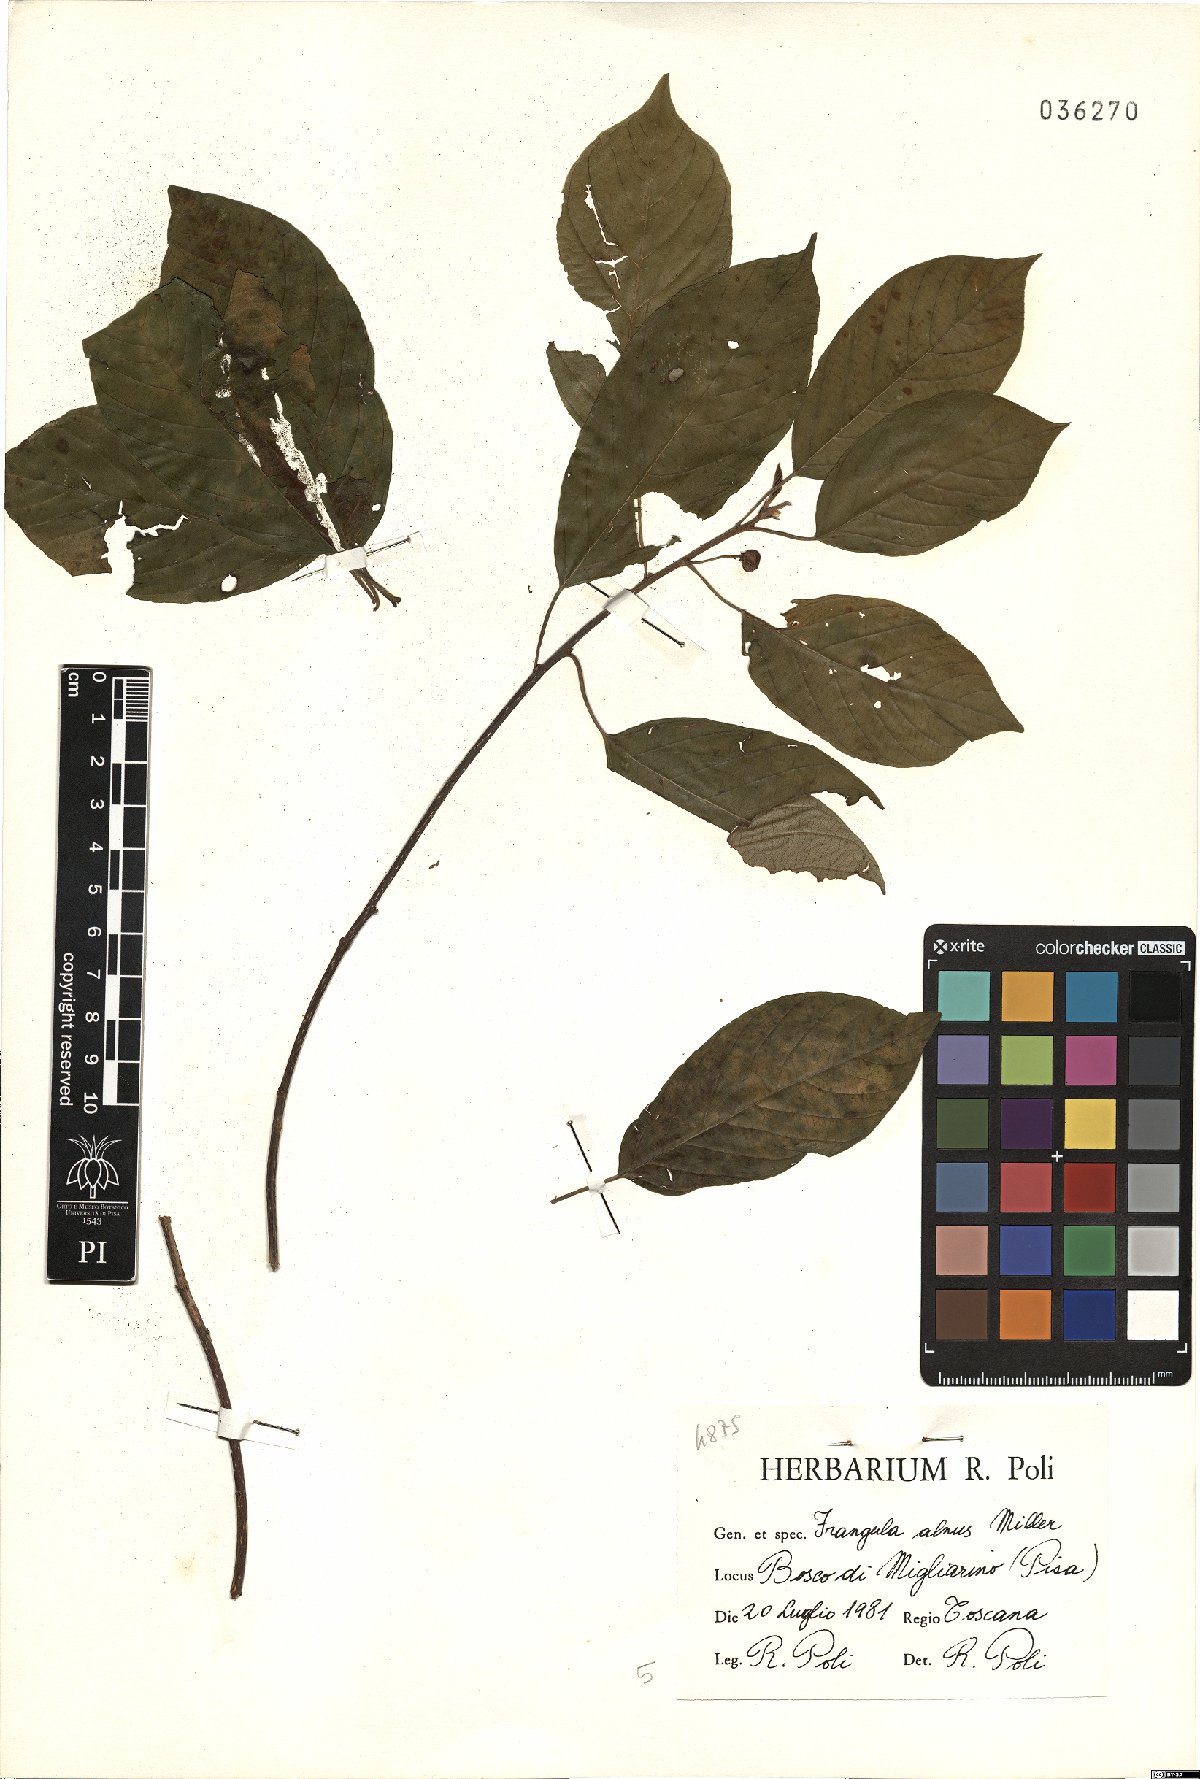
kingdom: Plantae
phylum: Tracheophyta
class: Magnoliopsida
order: Rosales
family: Rhamnaceae
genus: Frangula
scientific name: Frangula alnus
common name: Alder buckthorn
